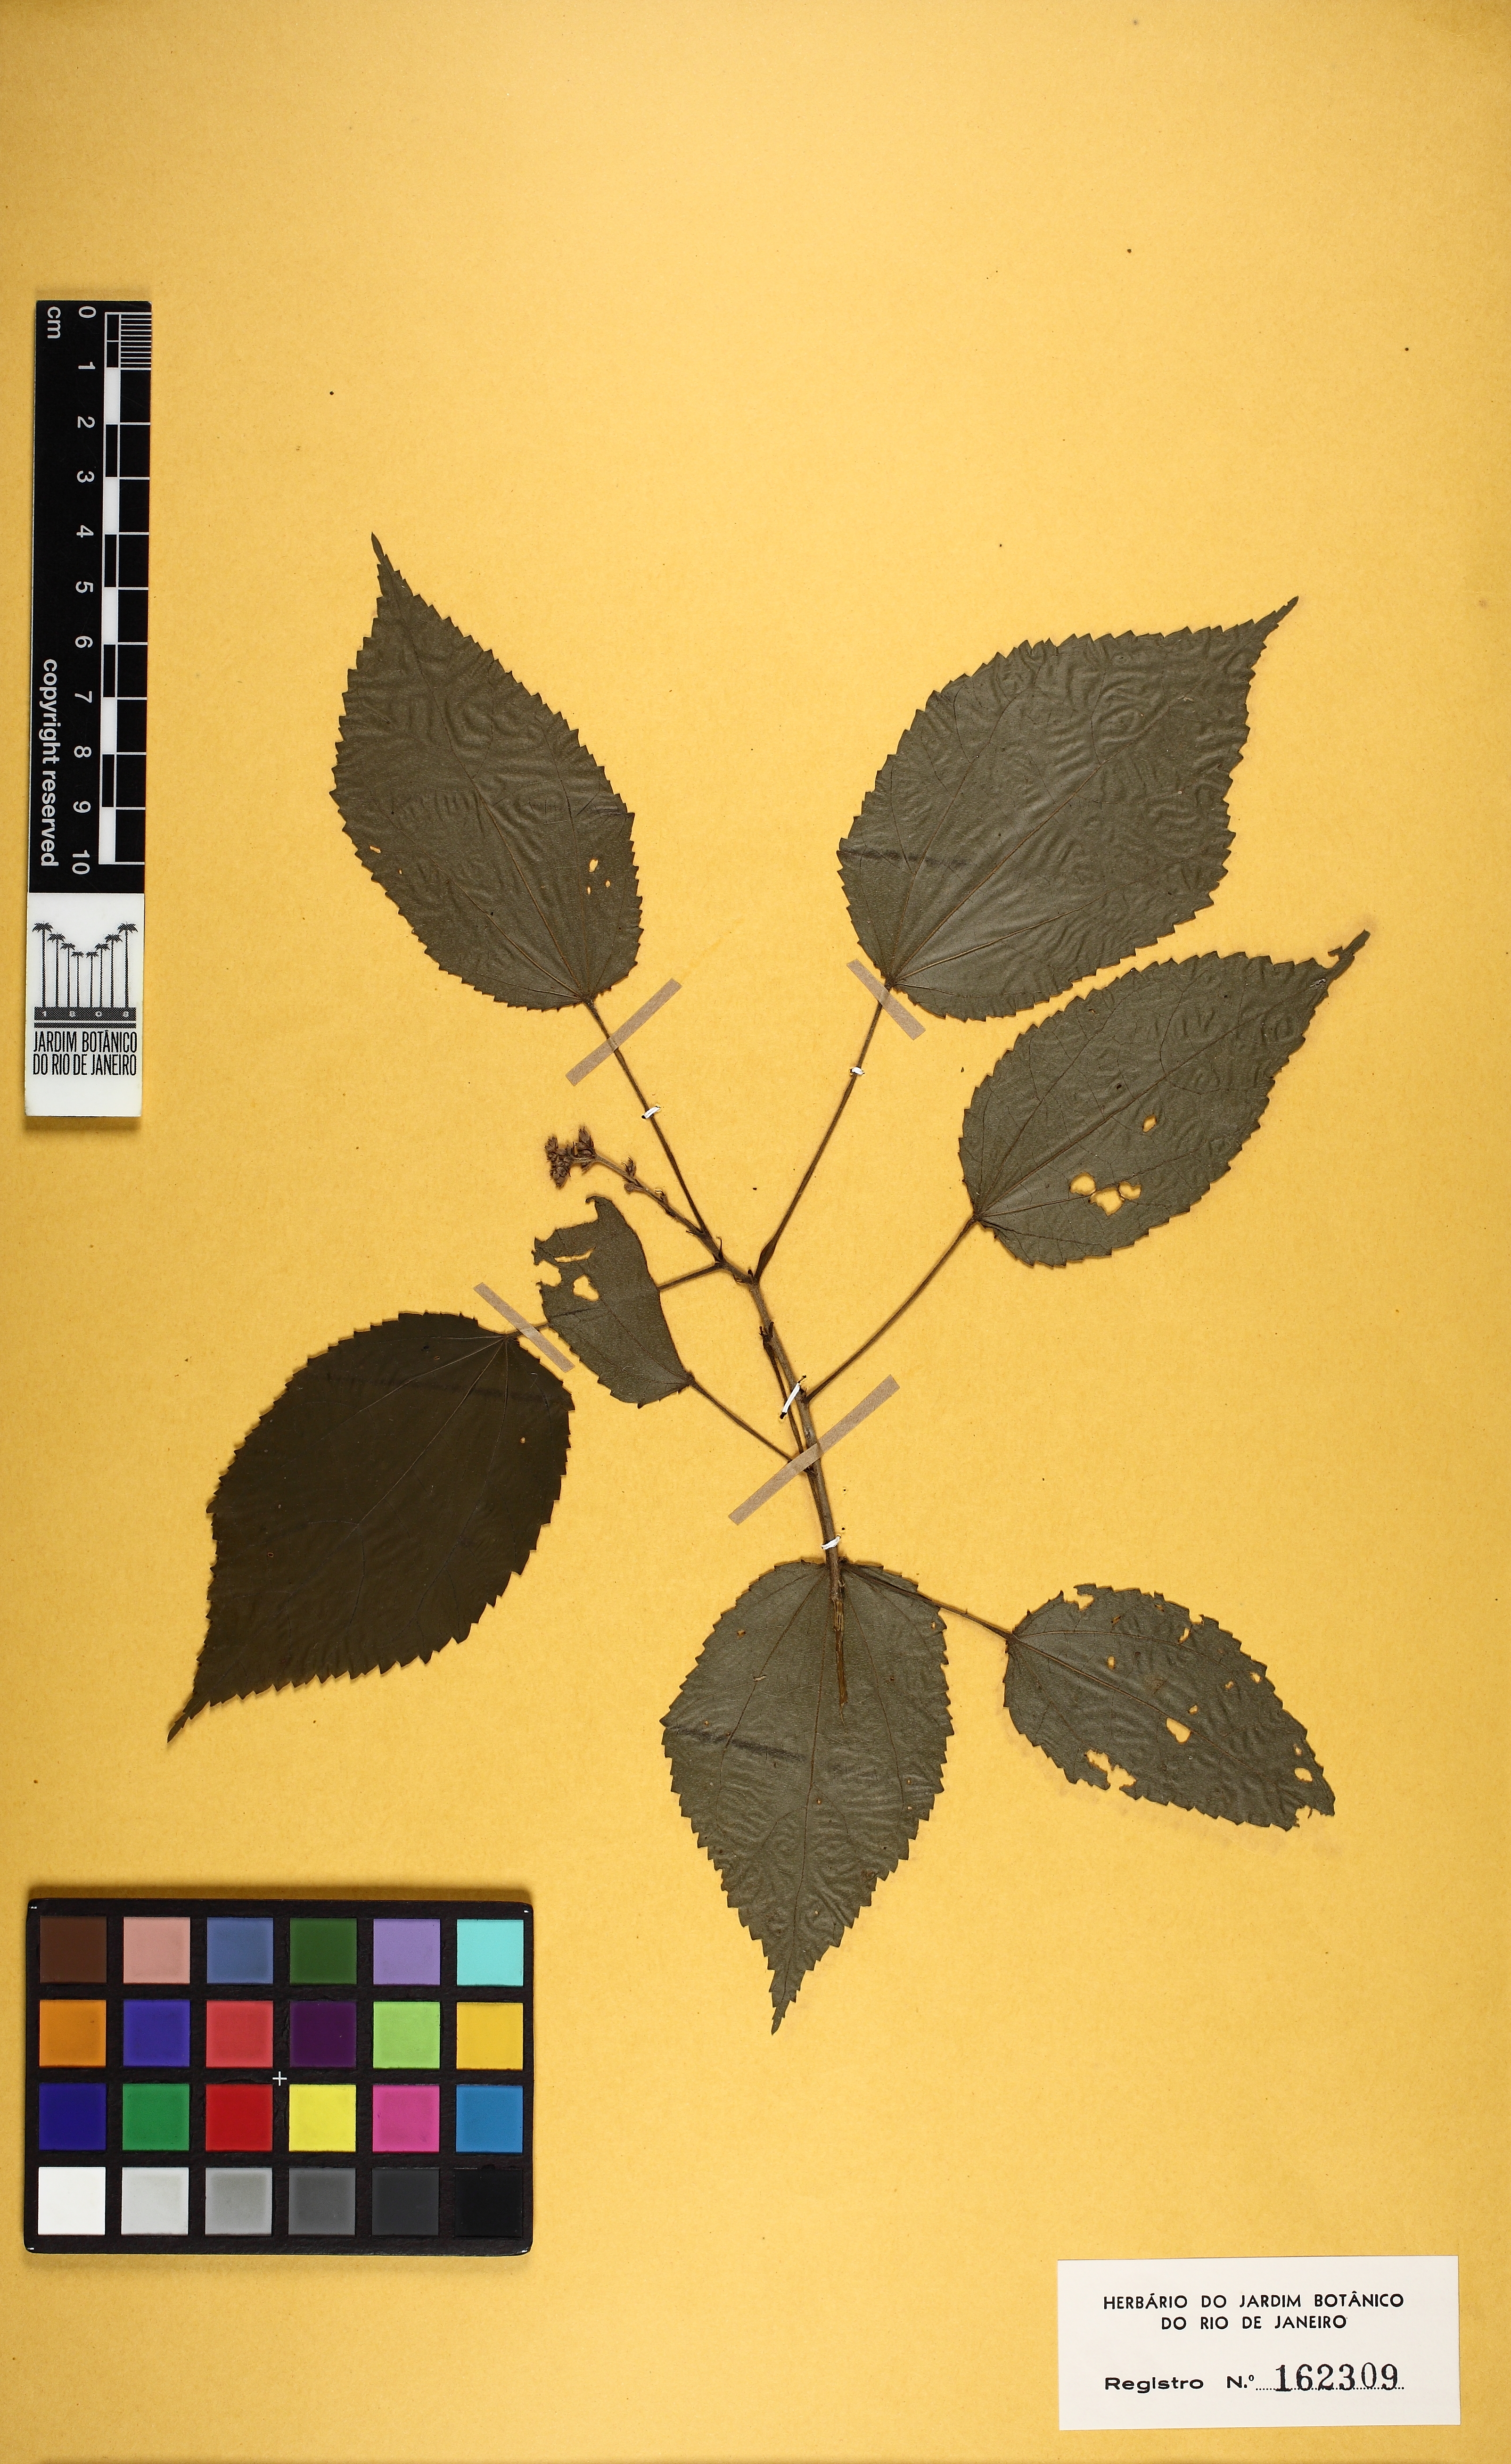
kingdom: Plantae
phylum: Tracheophyta
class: Magnoliopsida
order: Malvales
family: Malvaceae
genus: Triumfetta
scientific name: Triumfetta
